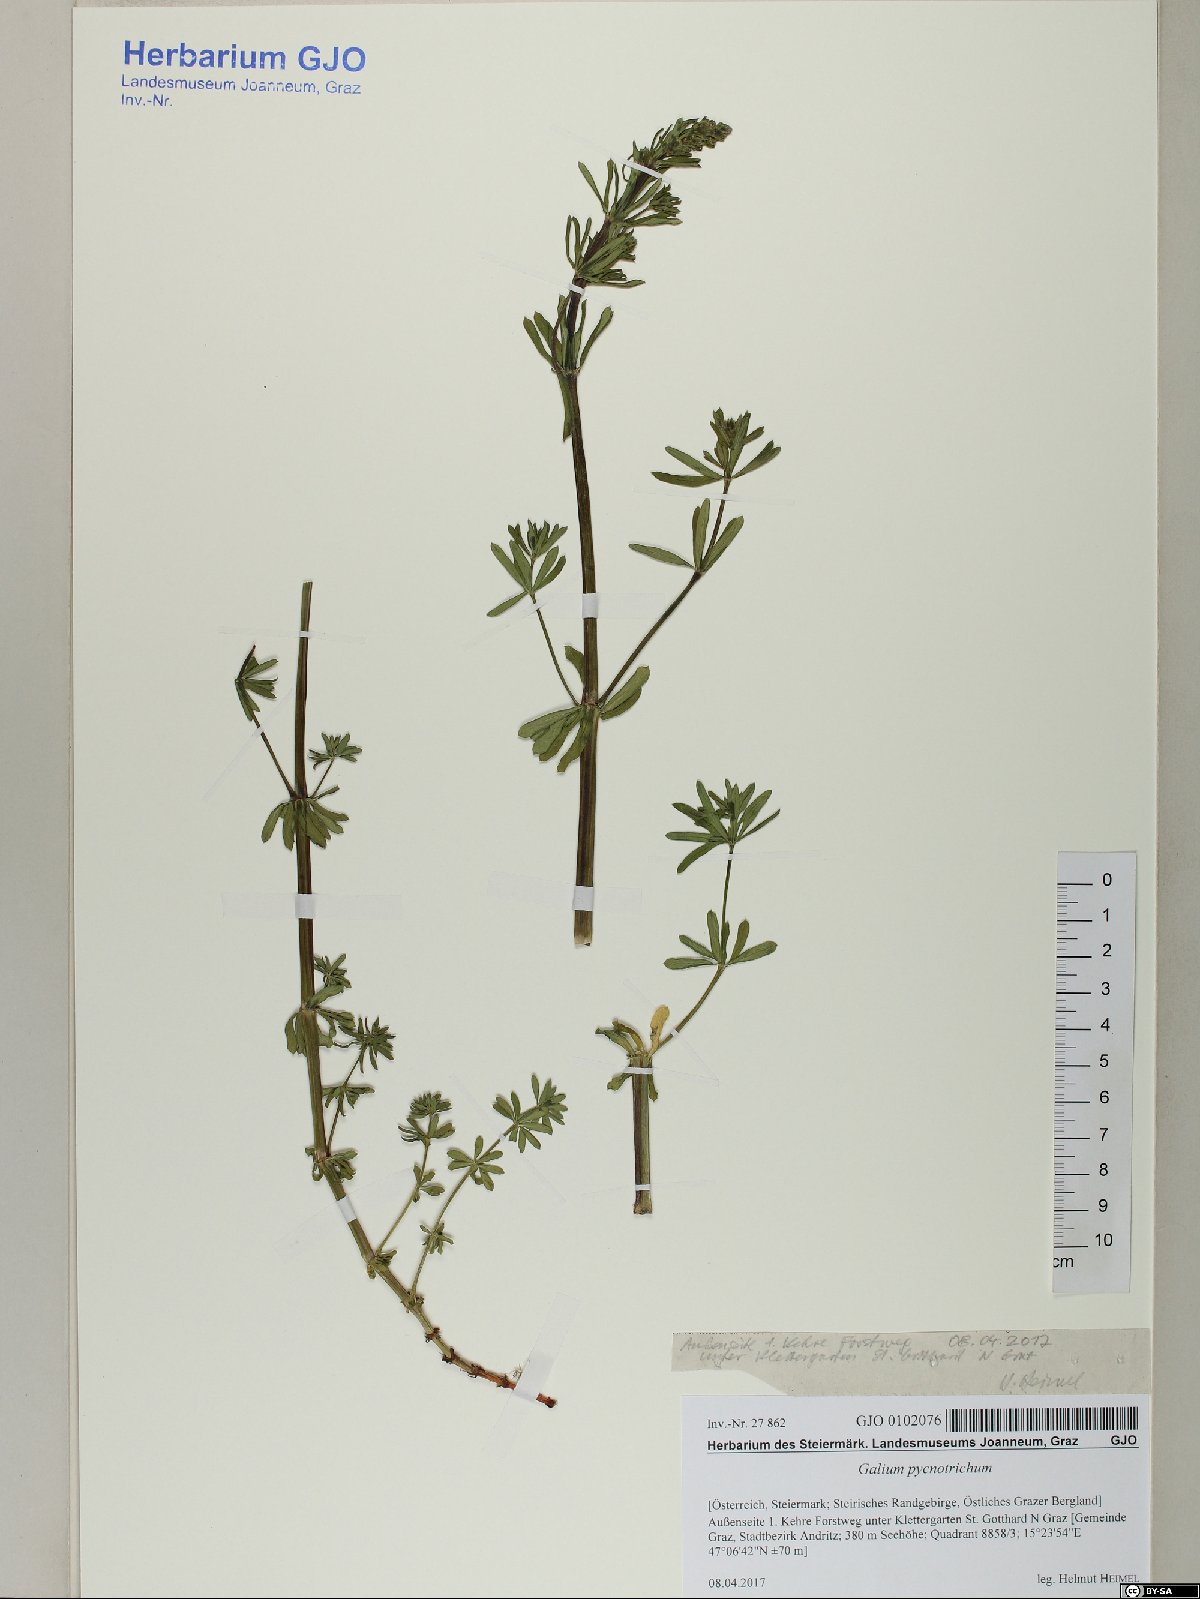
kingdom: Plantae
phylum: Tracheophyta
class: Magnoliopsida
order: Gentianales
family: Rubiaceae
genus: Galium
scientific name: Galium album
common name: White bedstraw
